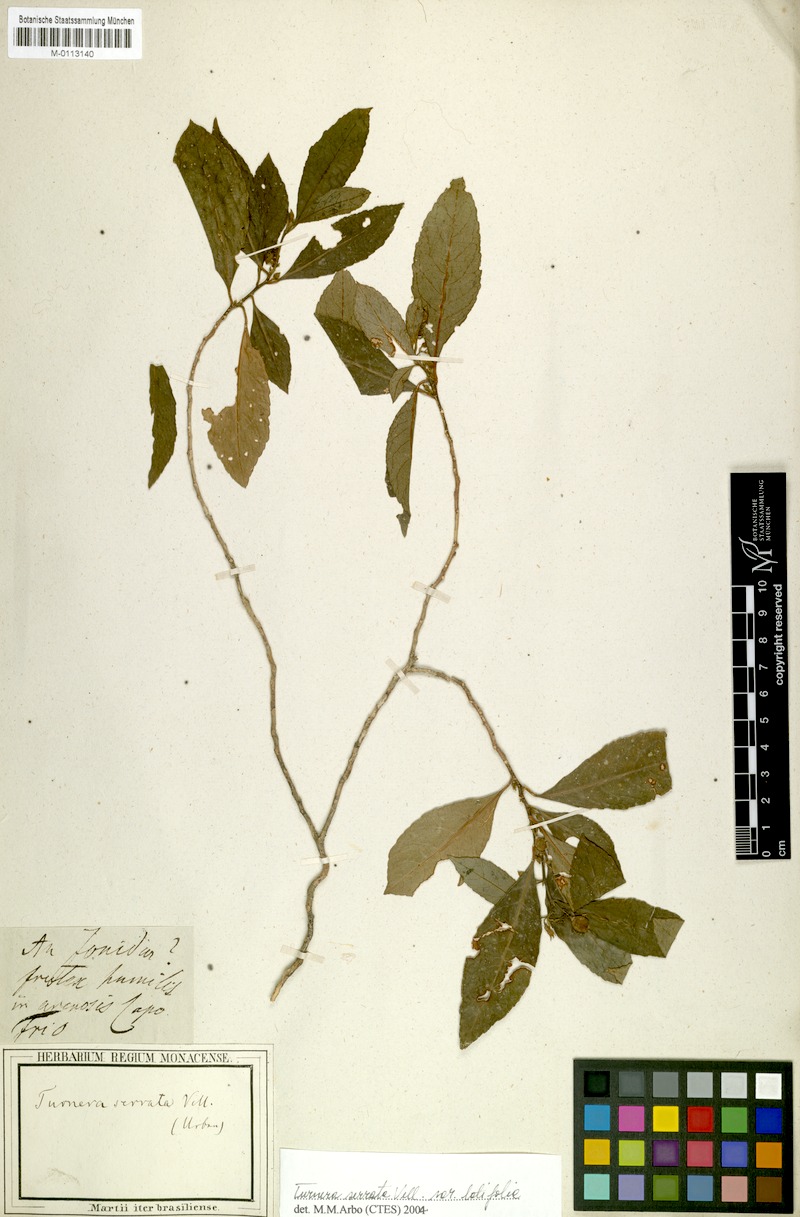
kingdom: Plantae
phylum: Tracheophyta
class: Magnoliopsida
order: Malpighiales
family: Turneraceae
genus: Turnera
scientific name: Turnera serrata
